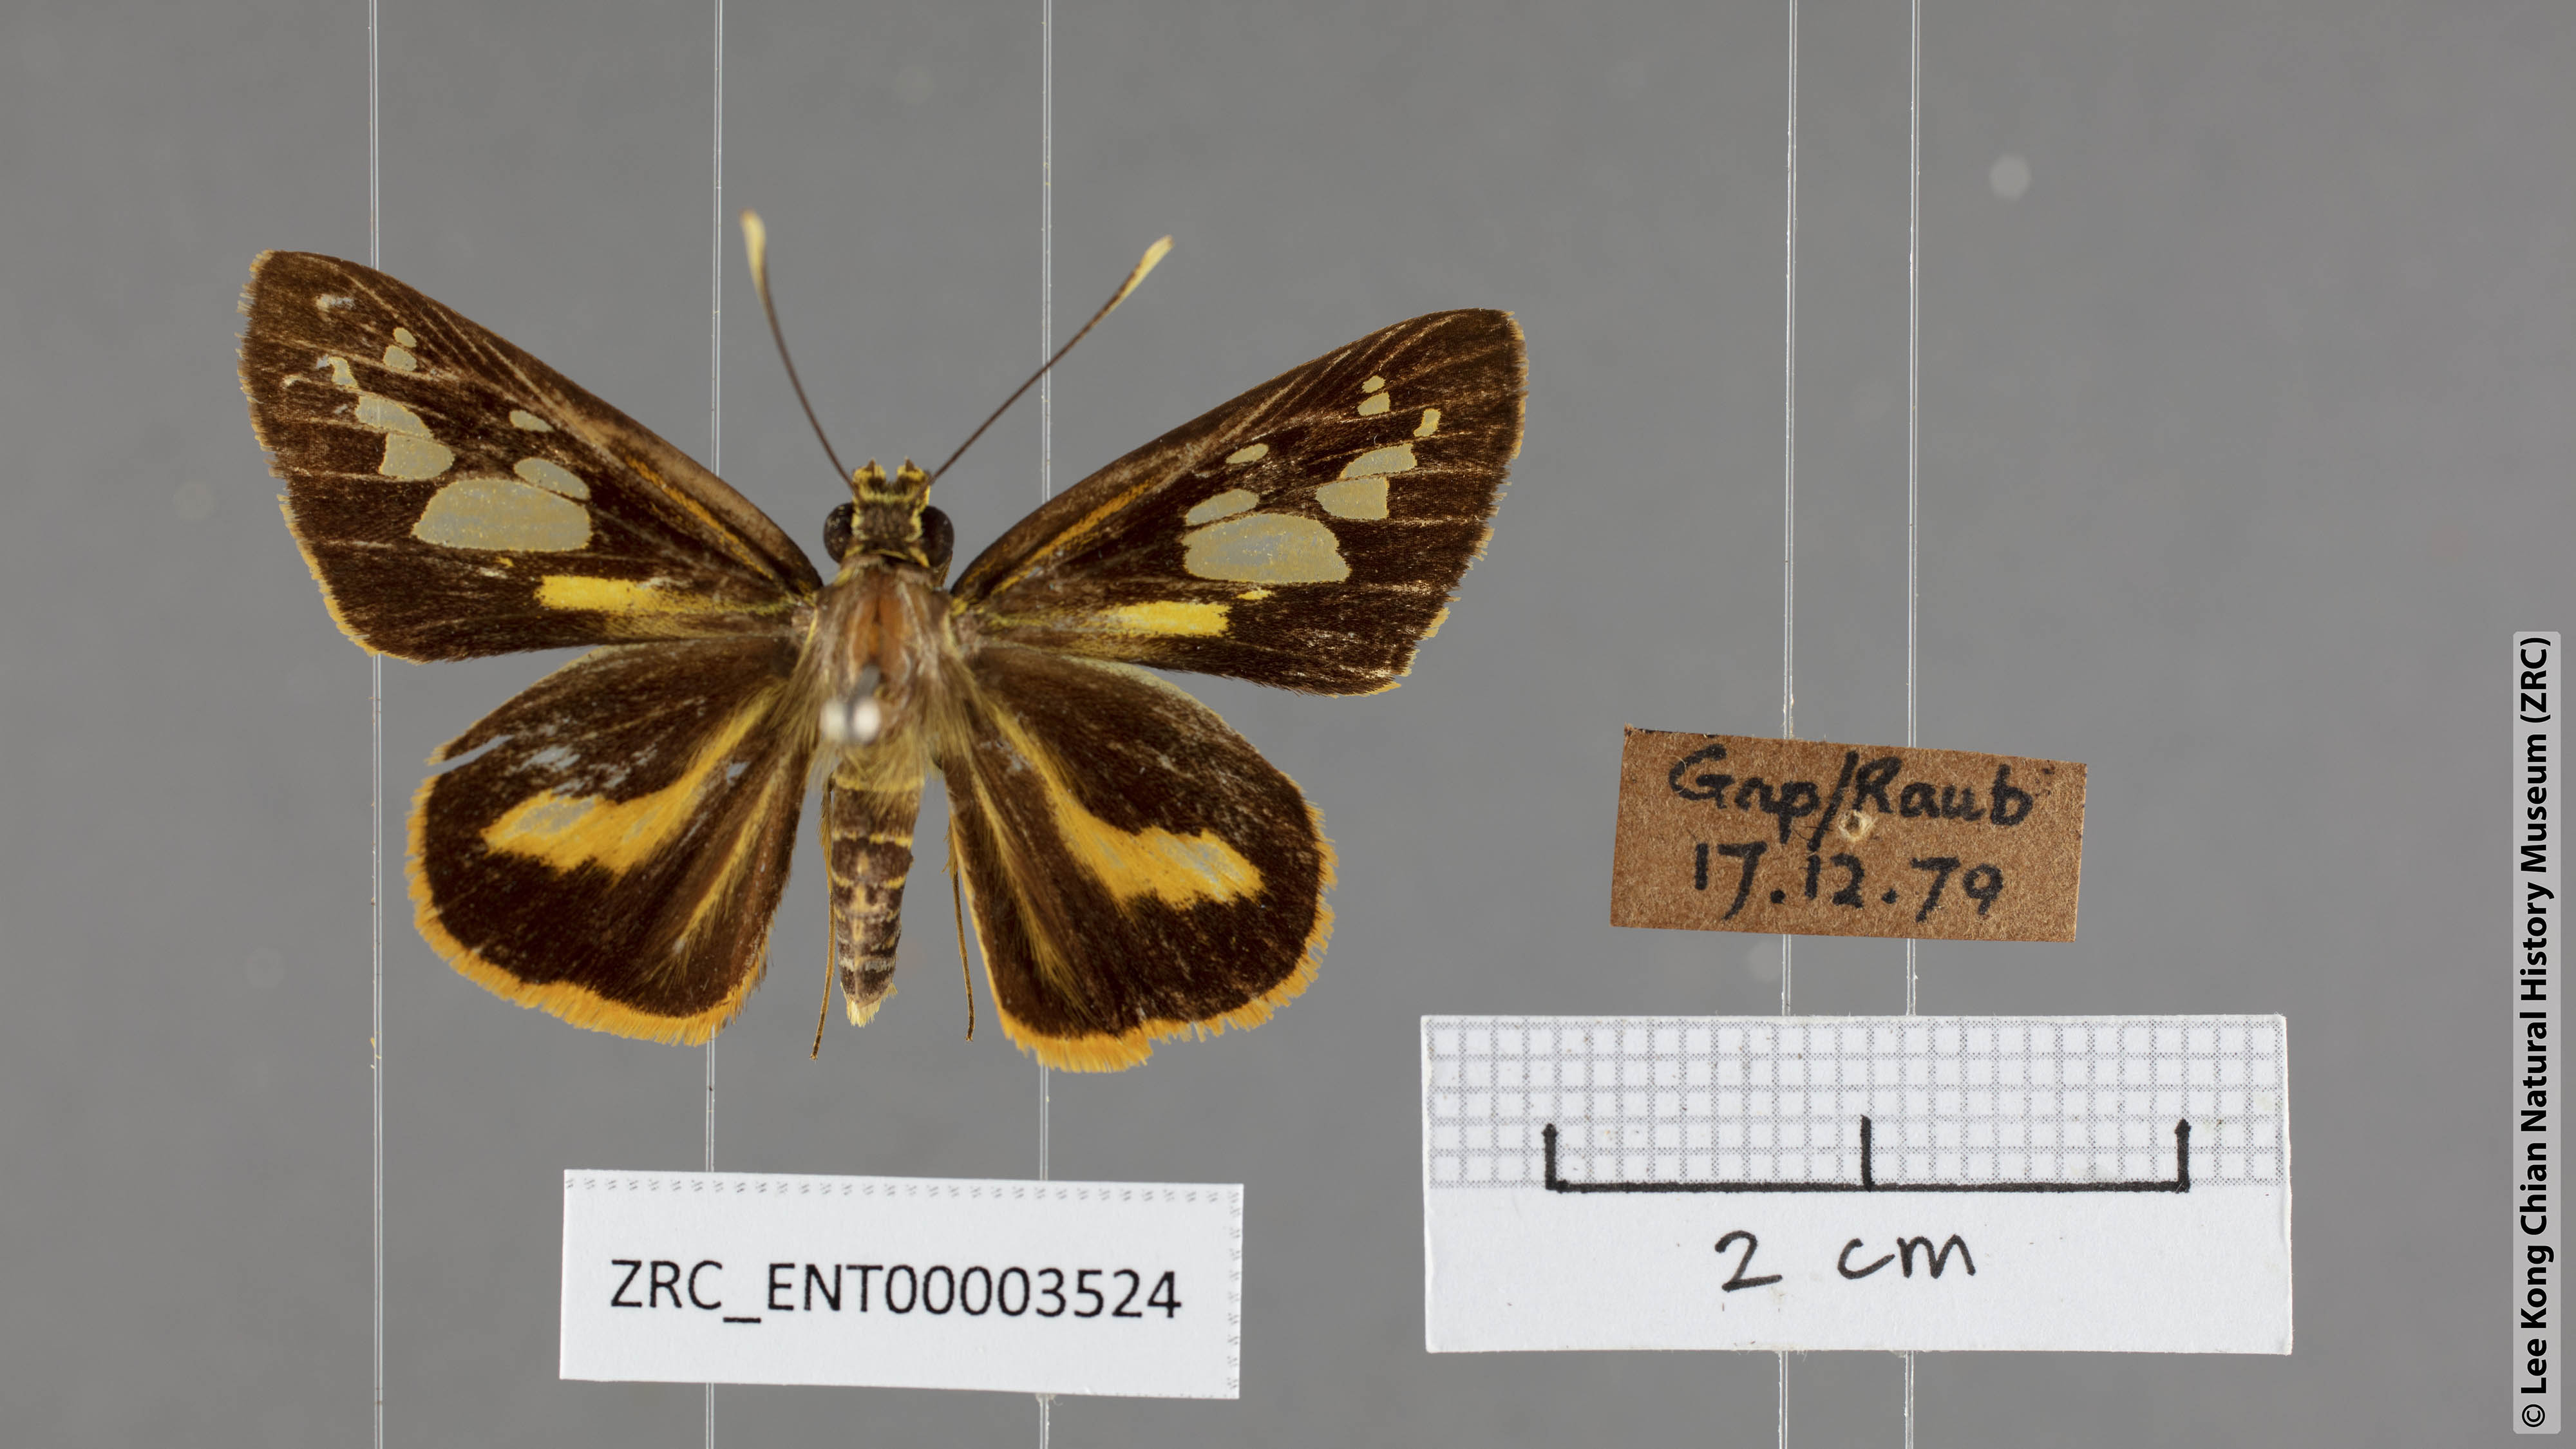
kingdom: Animalia
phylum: Arthropoda
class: Insecta
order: Lepidoptera
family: Hesperiidae
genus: Pyroneura
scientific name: Pyroneura
